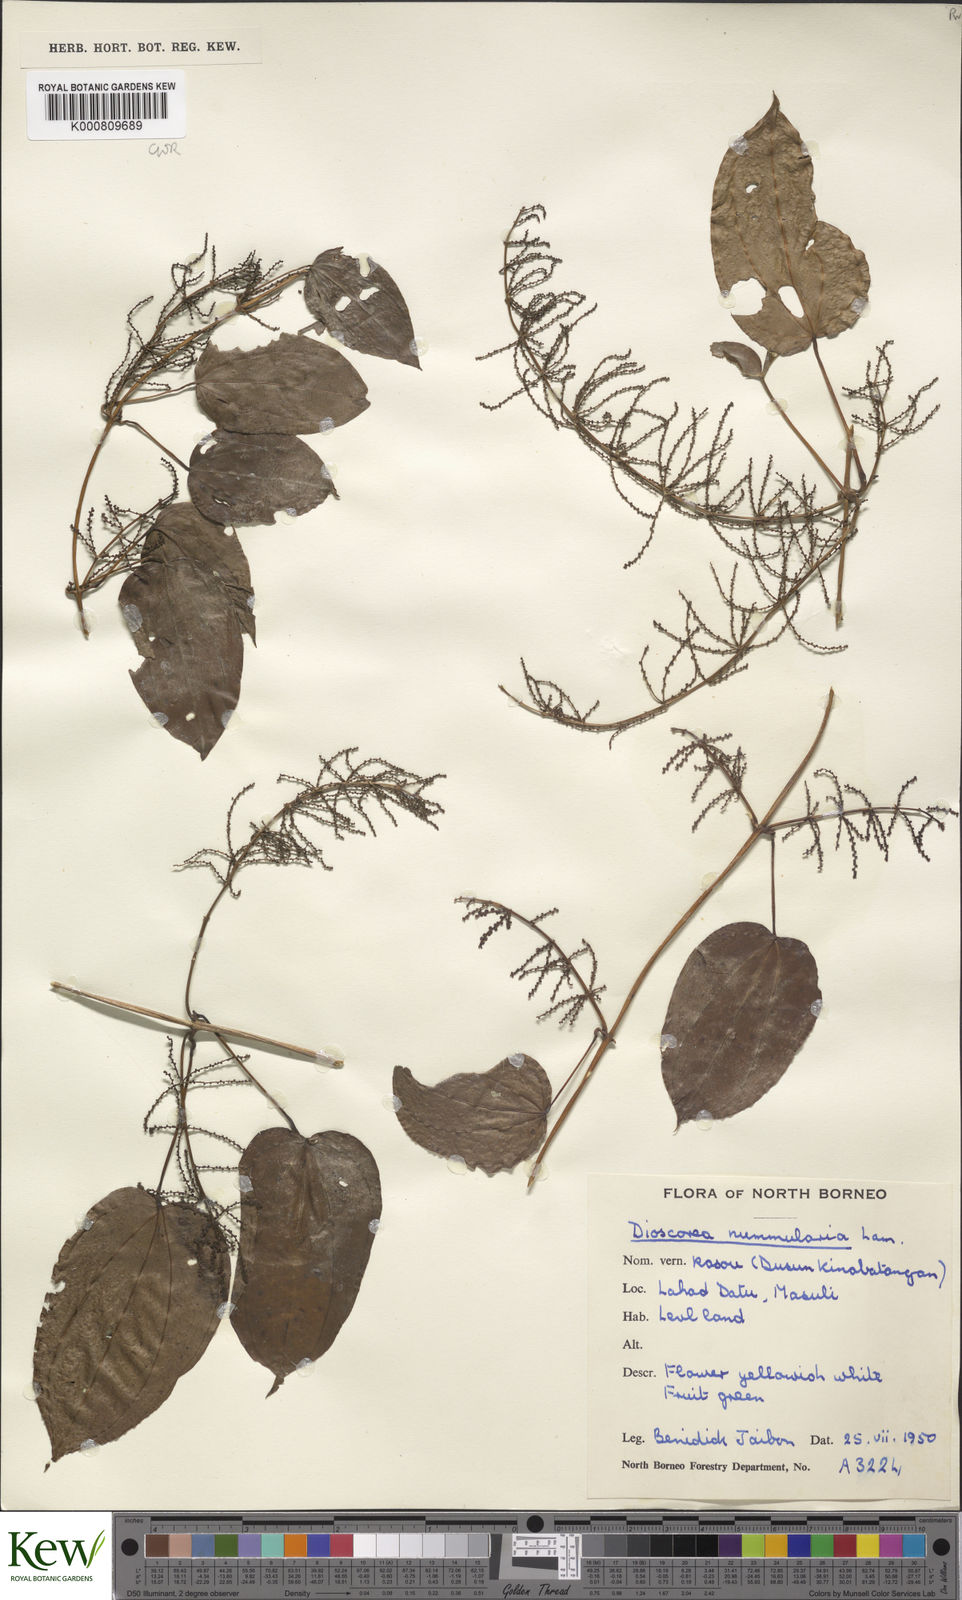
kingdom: Plantae
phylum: Tracheophyta
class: Liliopsida
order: Dioscoreales
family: Dioscoreaceae
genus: Dioscorea
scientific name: Dioscorea nummularia
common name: Pacific yam
